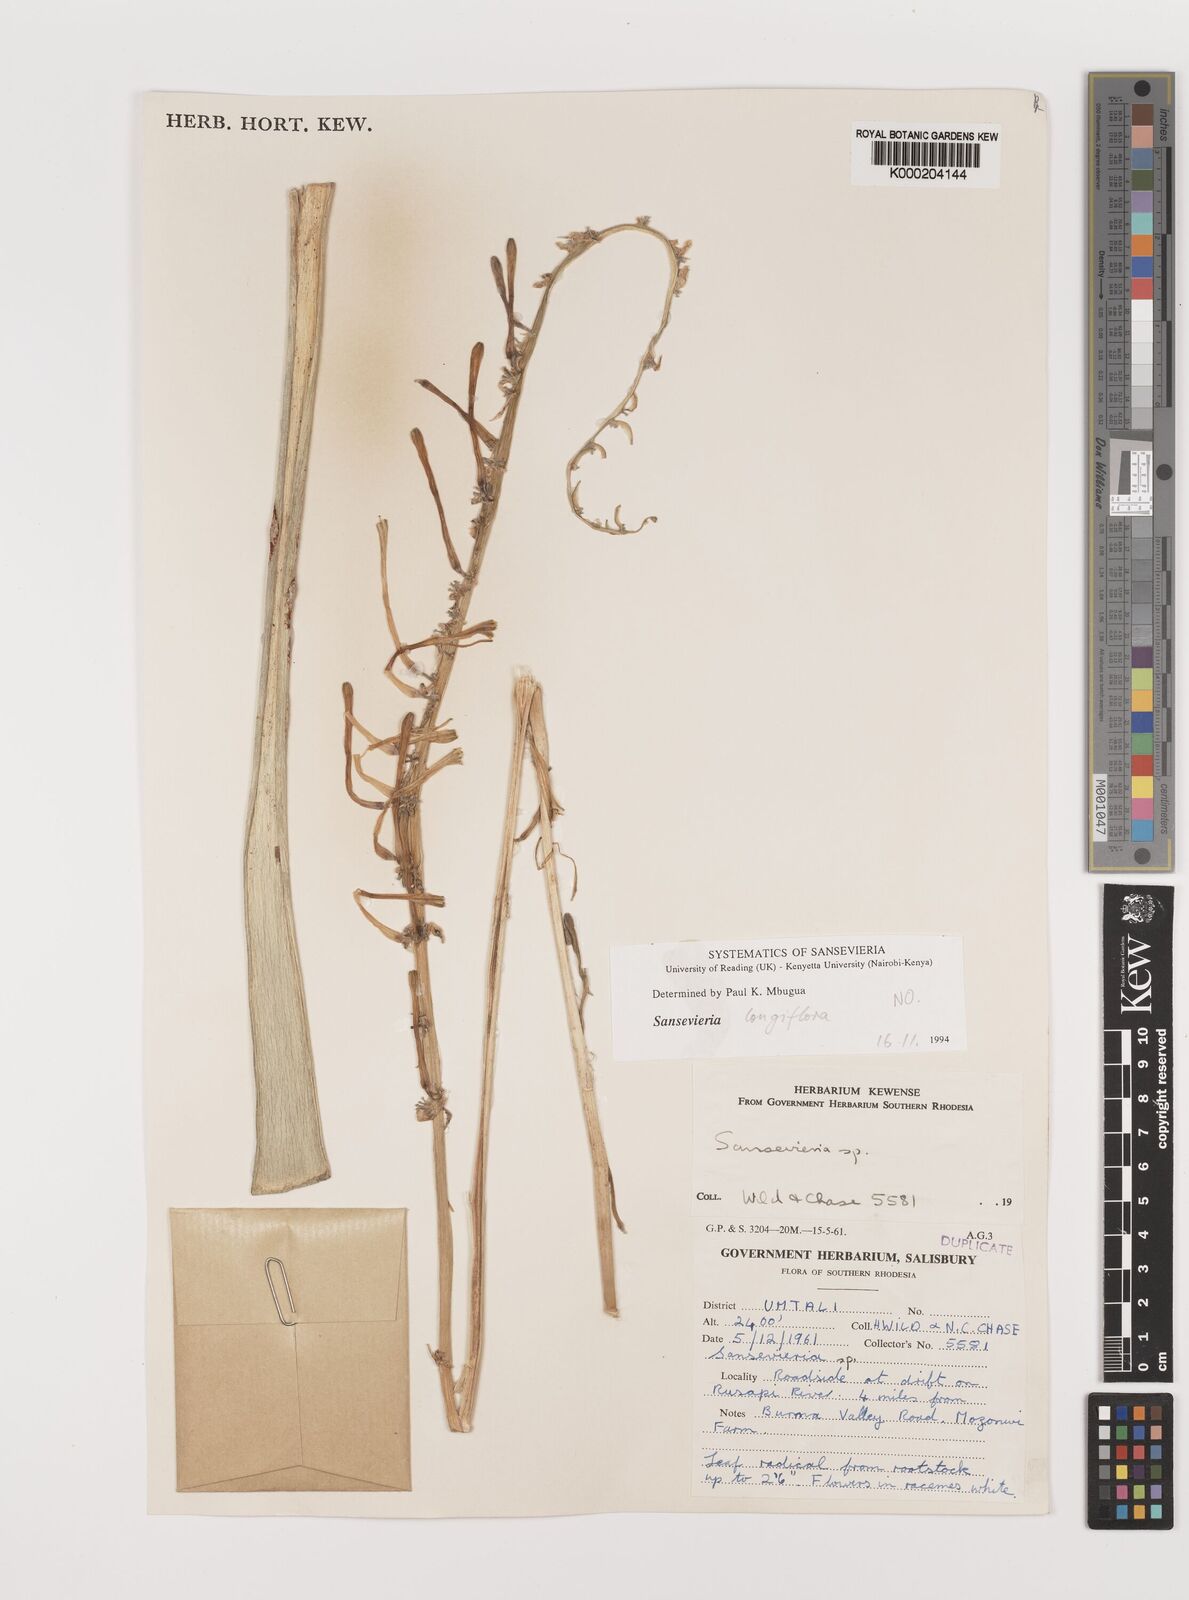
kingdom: Plantae
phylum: Tracheophyta
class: Liliopsida
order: Asparagales
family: Asparagaceae
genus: Dracaena
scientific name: Dracaena
